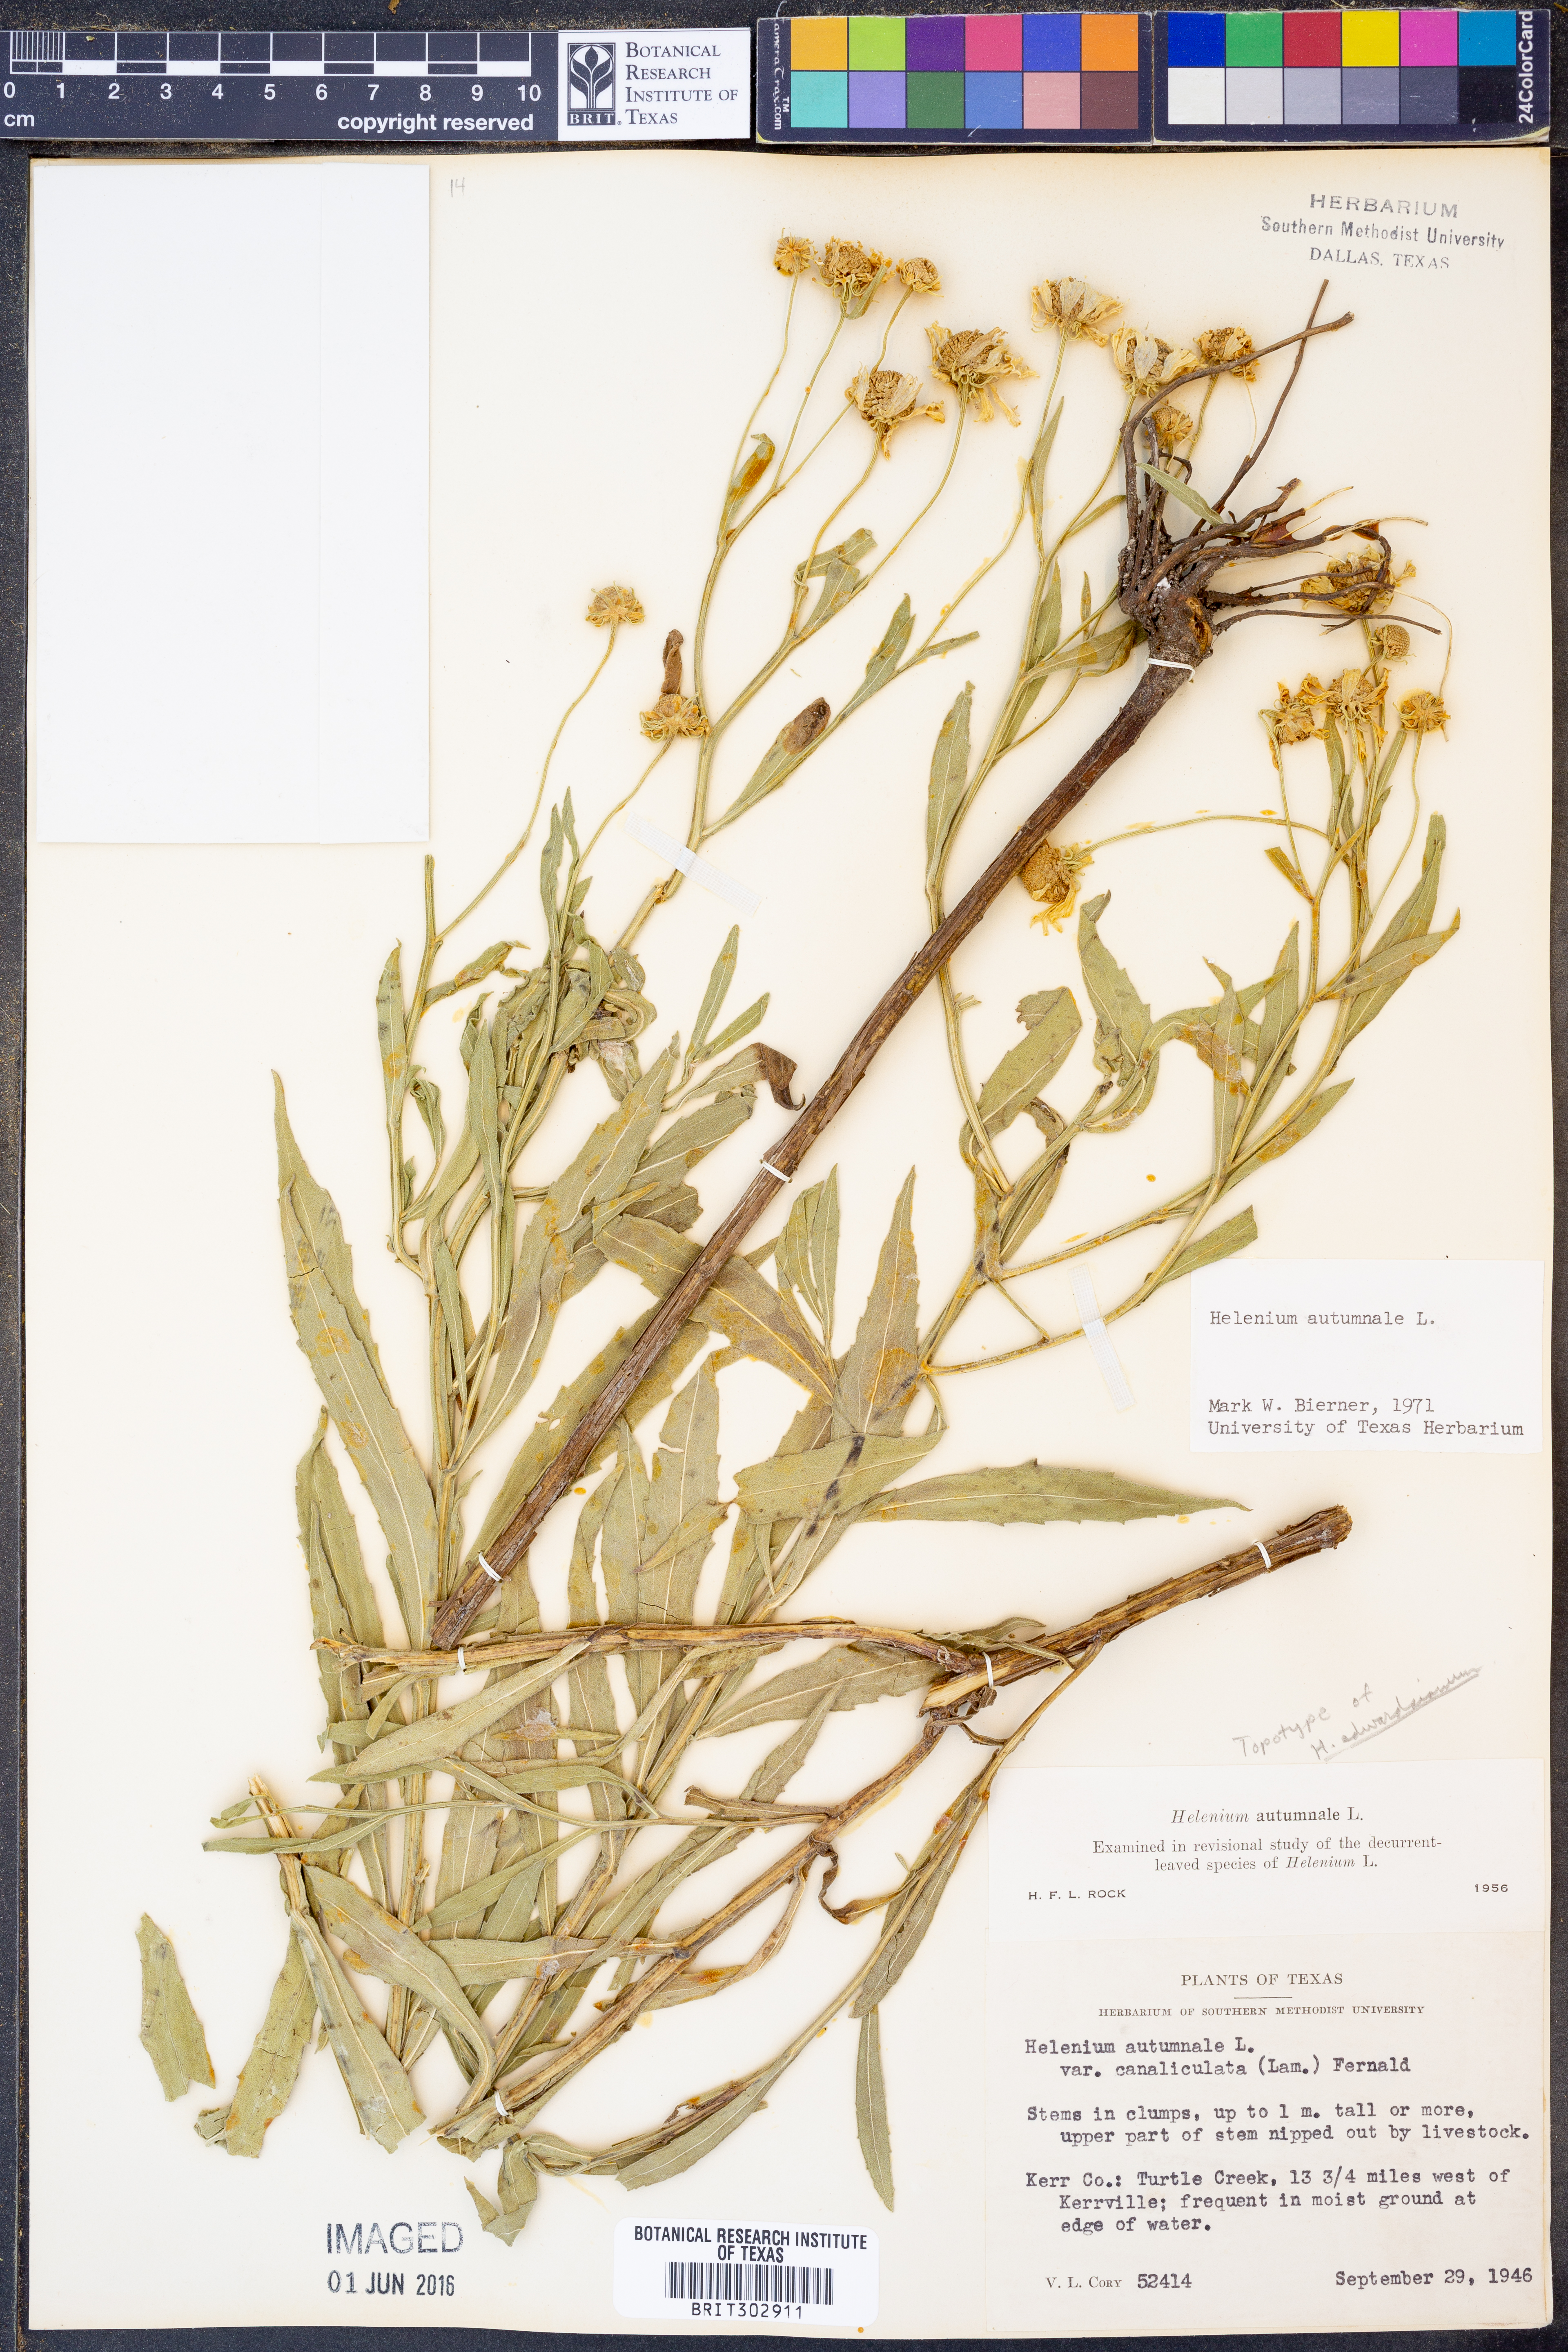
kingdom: Plantae
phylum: Tracheophyta
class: Magnoliopsida
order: Asterales
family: Asteraceae
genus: Helenium
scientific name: Helenium autumnale
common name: Sneezeweed
